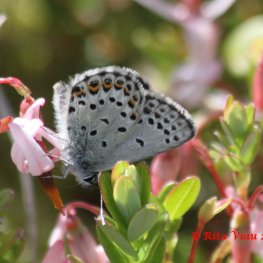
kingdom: Animalia
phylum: Arthropoda
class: Insecta
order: Lepidoptera
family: Lycaenidae
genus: Lycaeides
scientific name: Lycaeides idas
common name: Northern Blue
